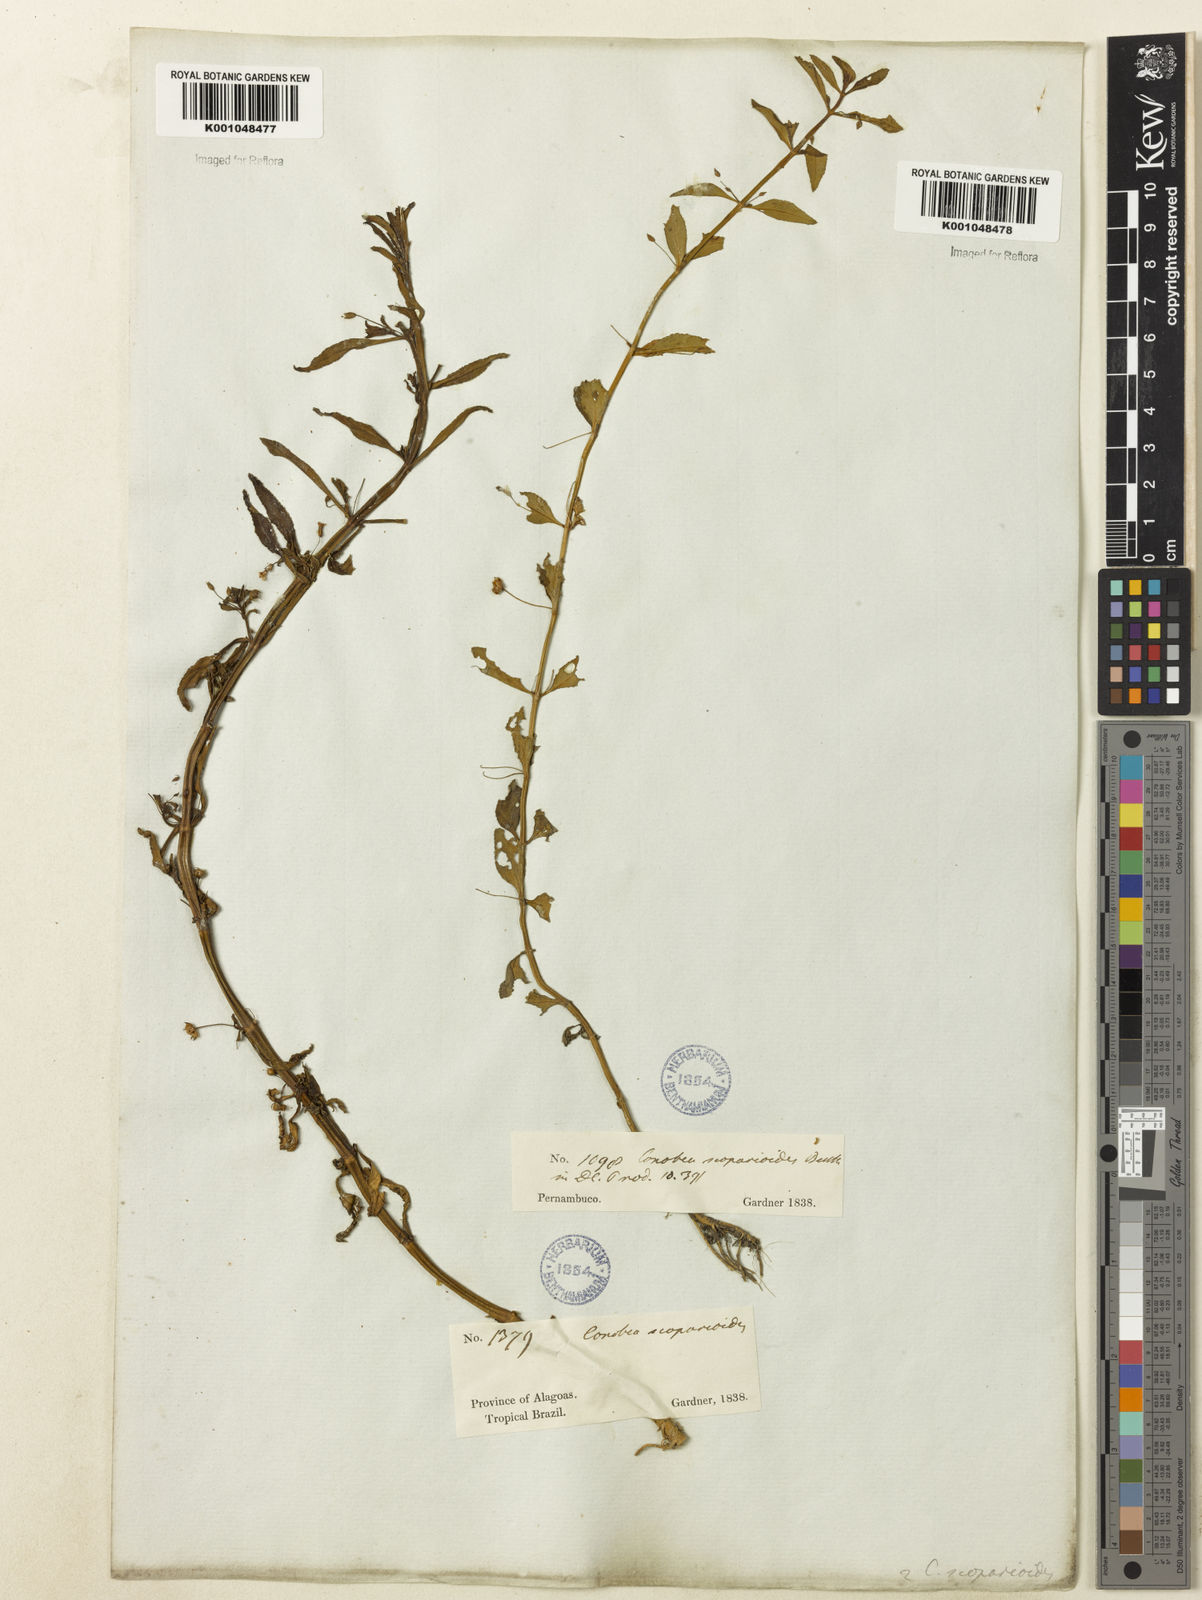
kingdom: Plantae
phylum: Tracheophyta
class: Magnoliopsida
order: Lamiales
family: Plantaginaceae
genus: Conobea
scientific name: Conobea scoparioides
